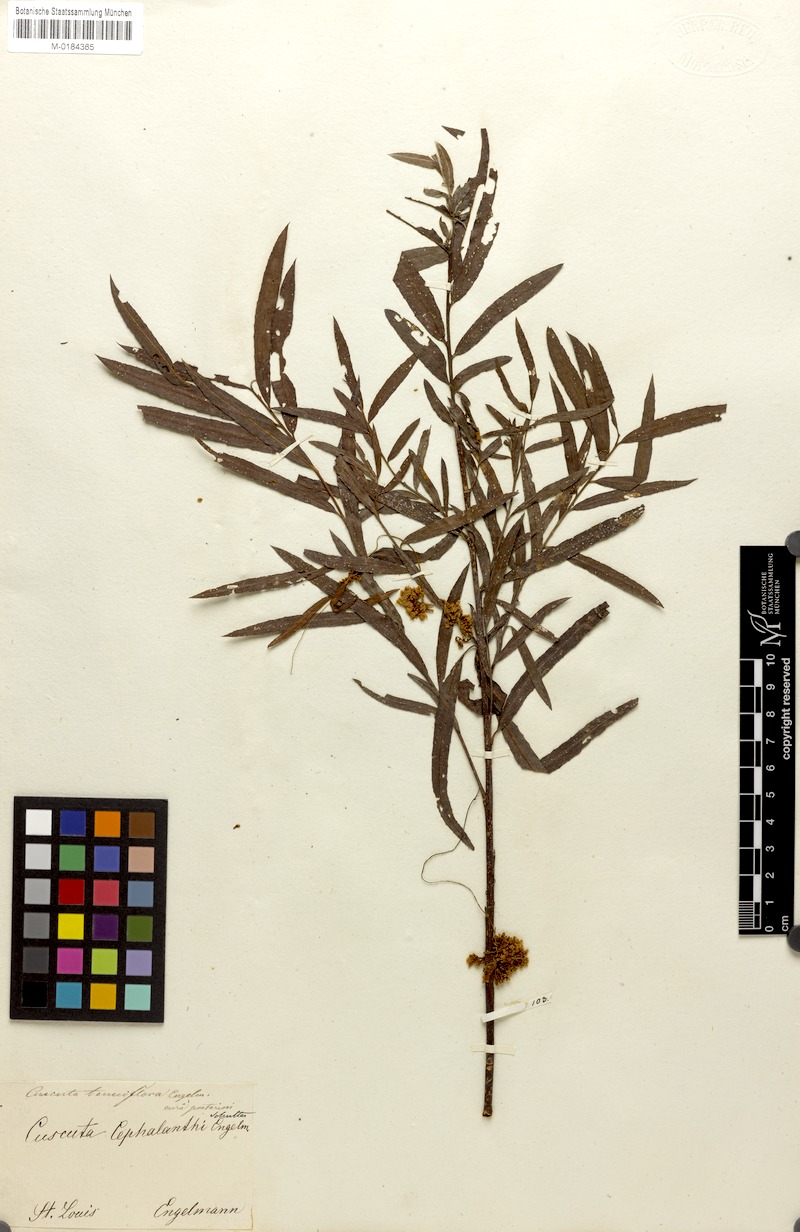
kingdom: Plantae
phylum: Tracheophyta
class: Magnoliopsida
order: Solanales
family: Convolvulaceae
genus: Cuscuta
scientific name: Cuscuta cephalanthi
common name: Button dodder
